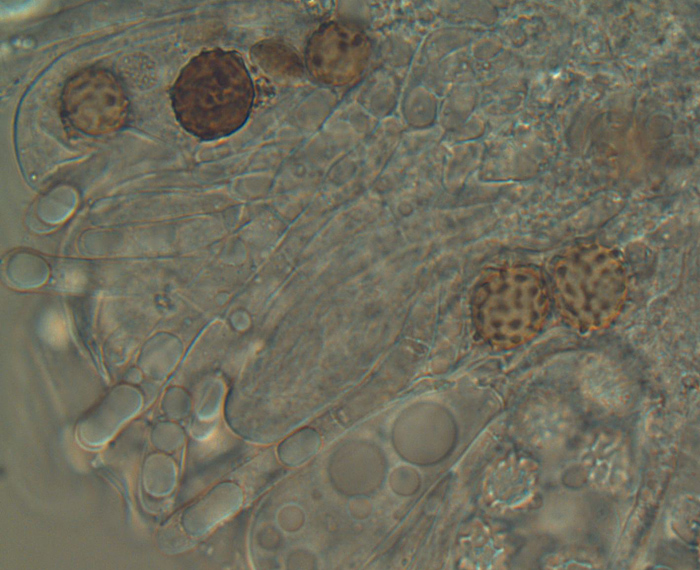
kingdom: Fungi
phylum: Ascomycota
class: Pezizomycetes
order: Pezizales
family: Ascodesmidaceae
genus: Ascodesmis
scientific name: Ascodesmis nana
